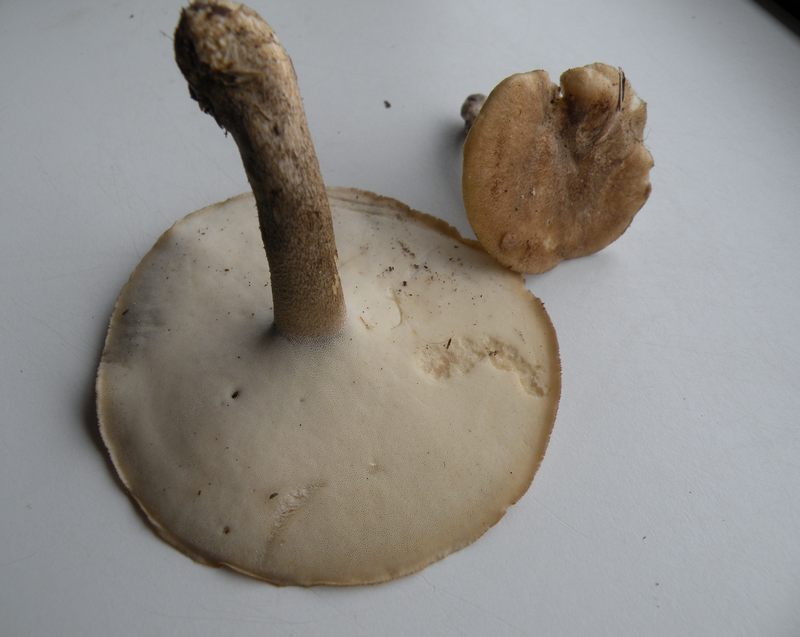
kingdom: Fungi
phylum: Basidiomycota
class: Agaricomycetes
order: Polyporales
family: Polyporaceae
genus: Lentinus
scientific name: Lentinus substrictus
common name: forårs-stilkporesvamp
